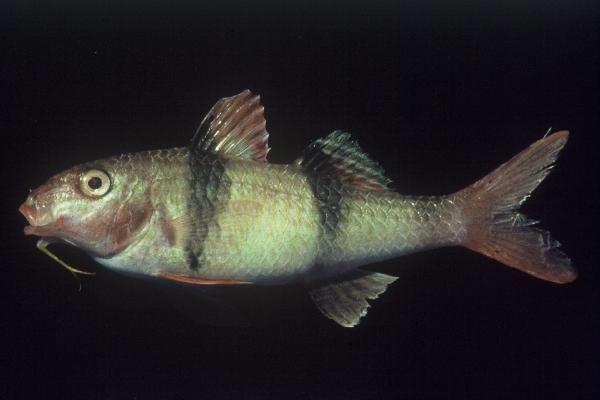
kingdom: Animalia
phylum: Chordata
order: Perciformes
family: Mullidae
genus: Parupeneus
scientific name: Parupeneus trifasciatus
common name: Doublebar goatfish
